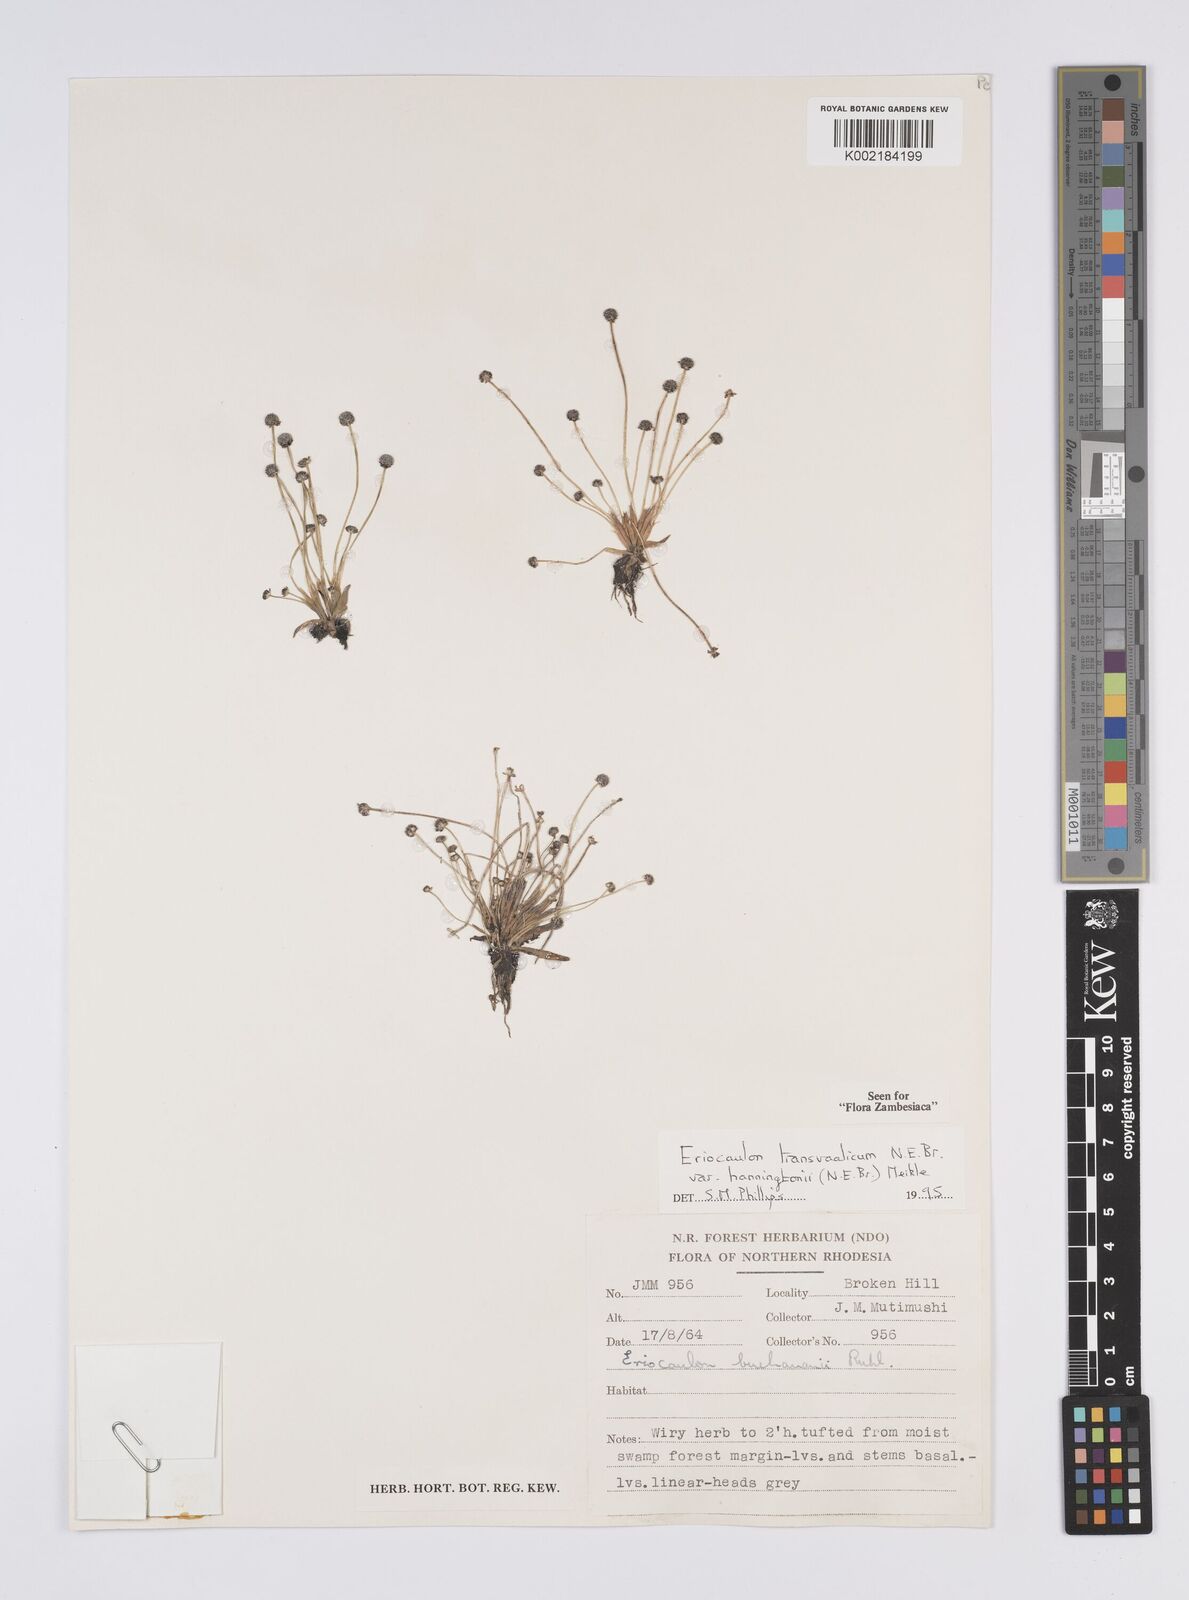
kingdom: Plantae
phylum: Tracheophyta
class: Liliopsida
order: Poales
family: Eriocaulaceae
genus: Eriocaulon
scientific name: Eriocaulon transvaalicum
